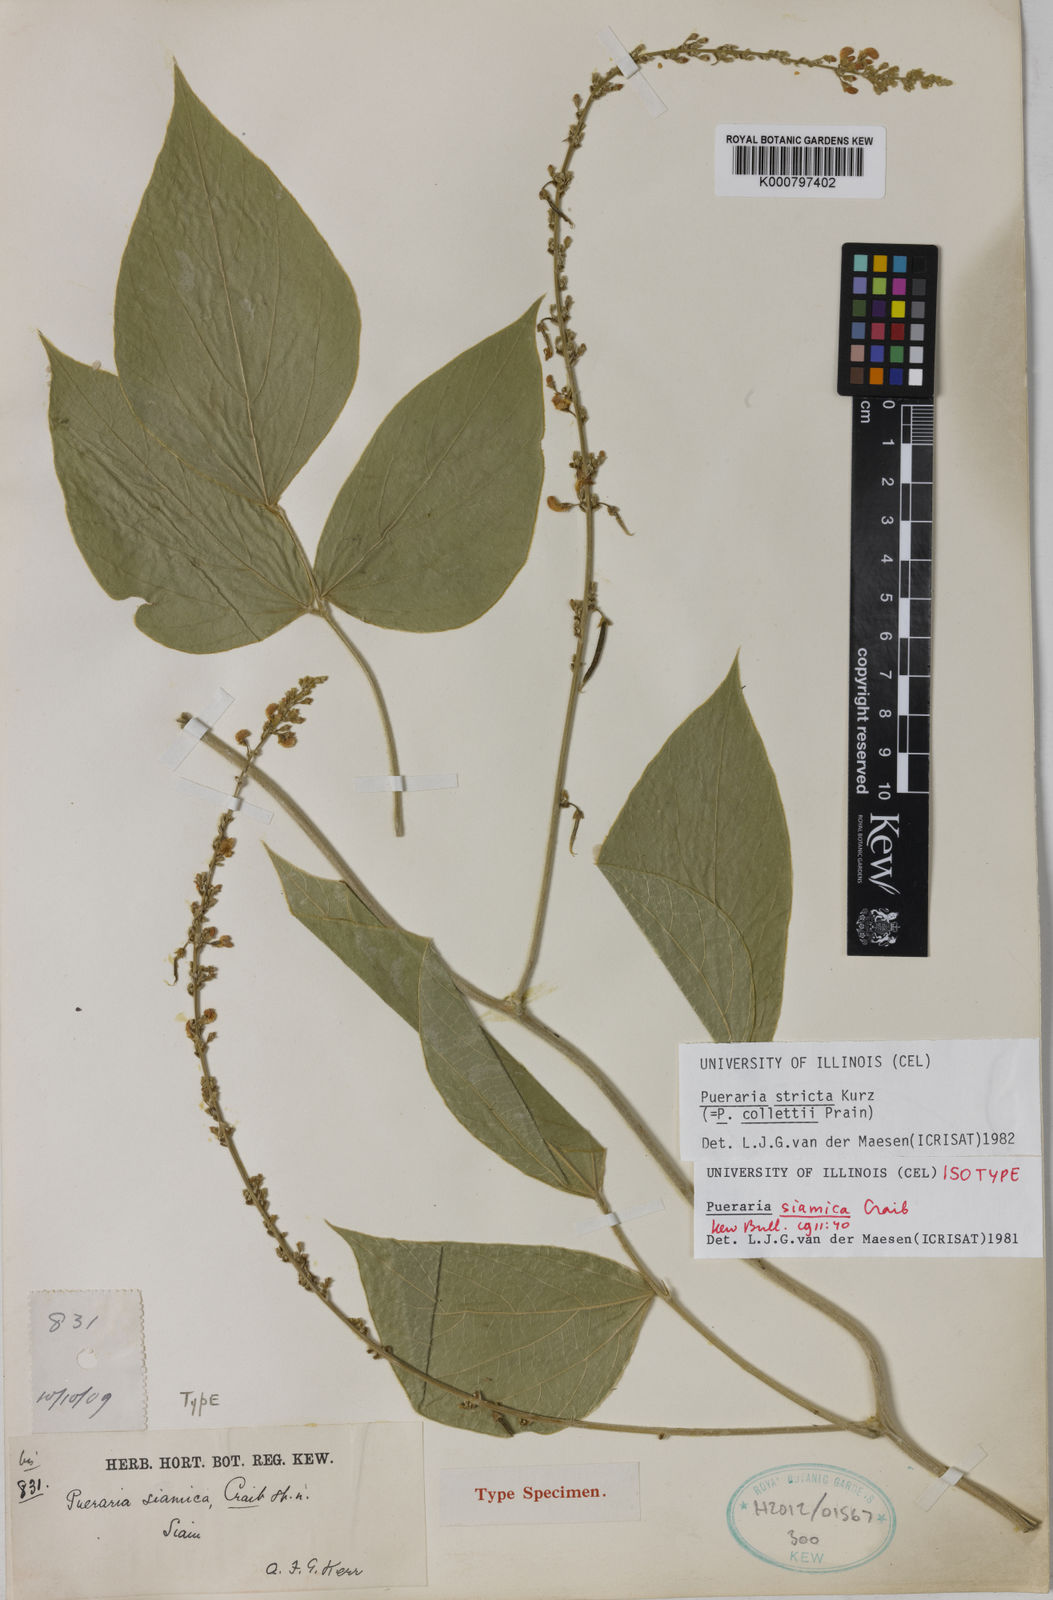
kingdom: Plantae
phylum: Tracheophyta
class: Magnoliopsida
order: Fabales
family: Fabaceae
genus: Teyleria
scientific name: Teyleria stricta
